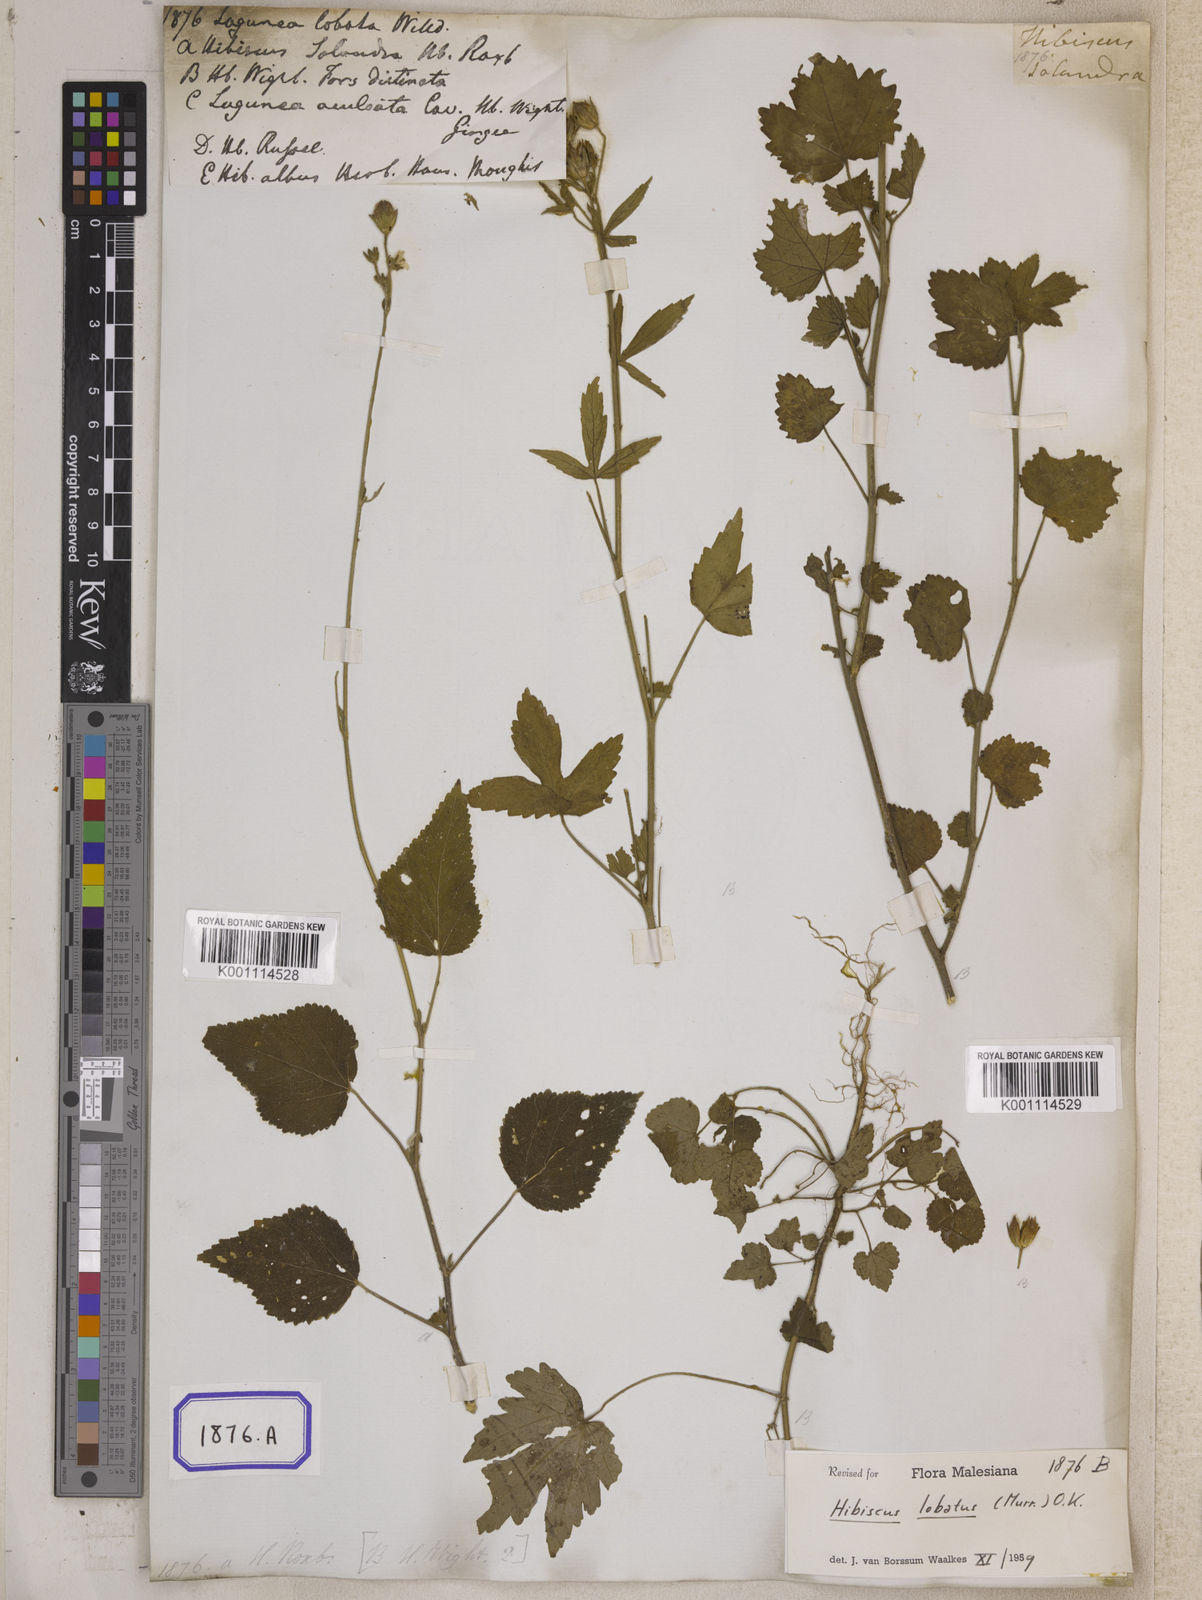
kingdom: Plantae
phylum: Tracheophyta
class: Magnoliopsida
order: Malvales
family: Malvaceae
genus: Hibiscus
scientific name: Hibiscus lobatus
